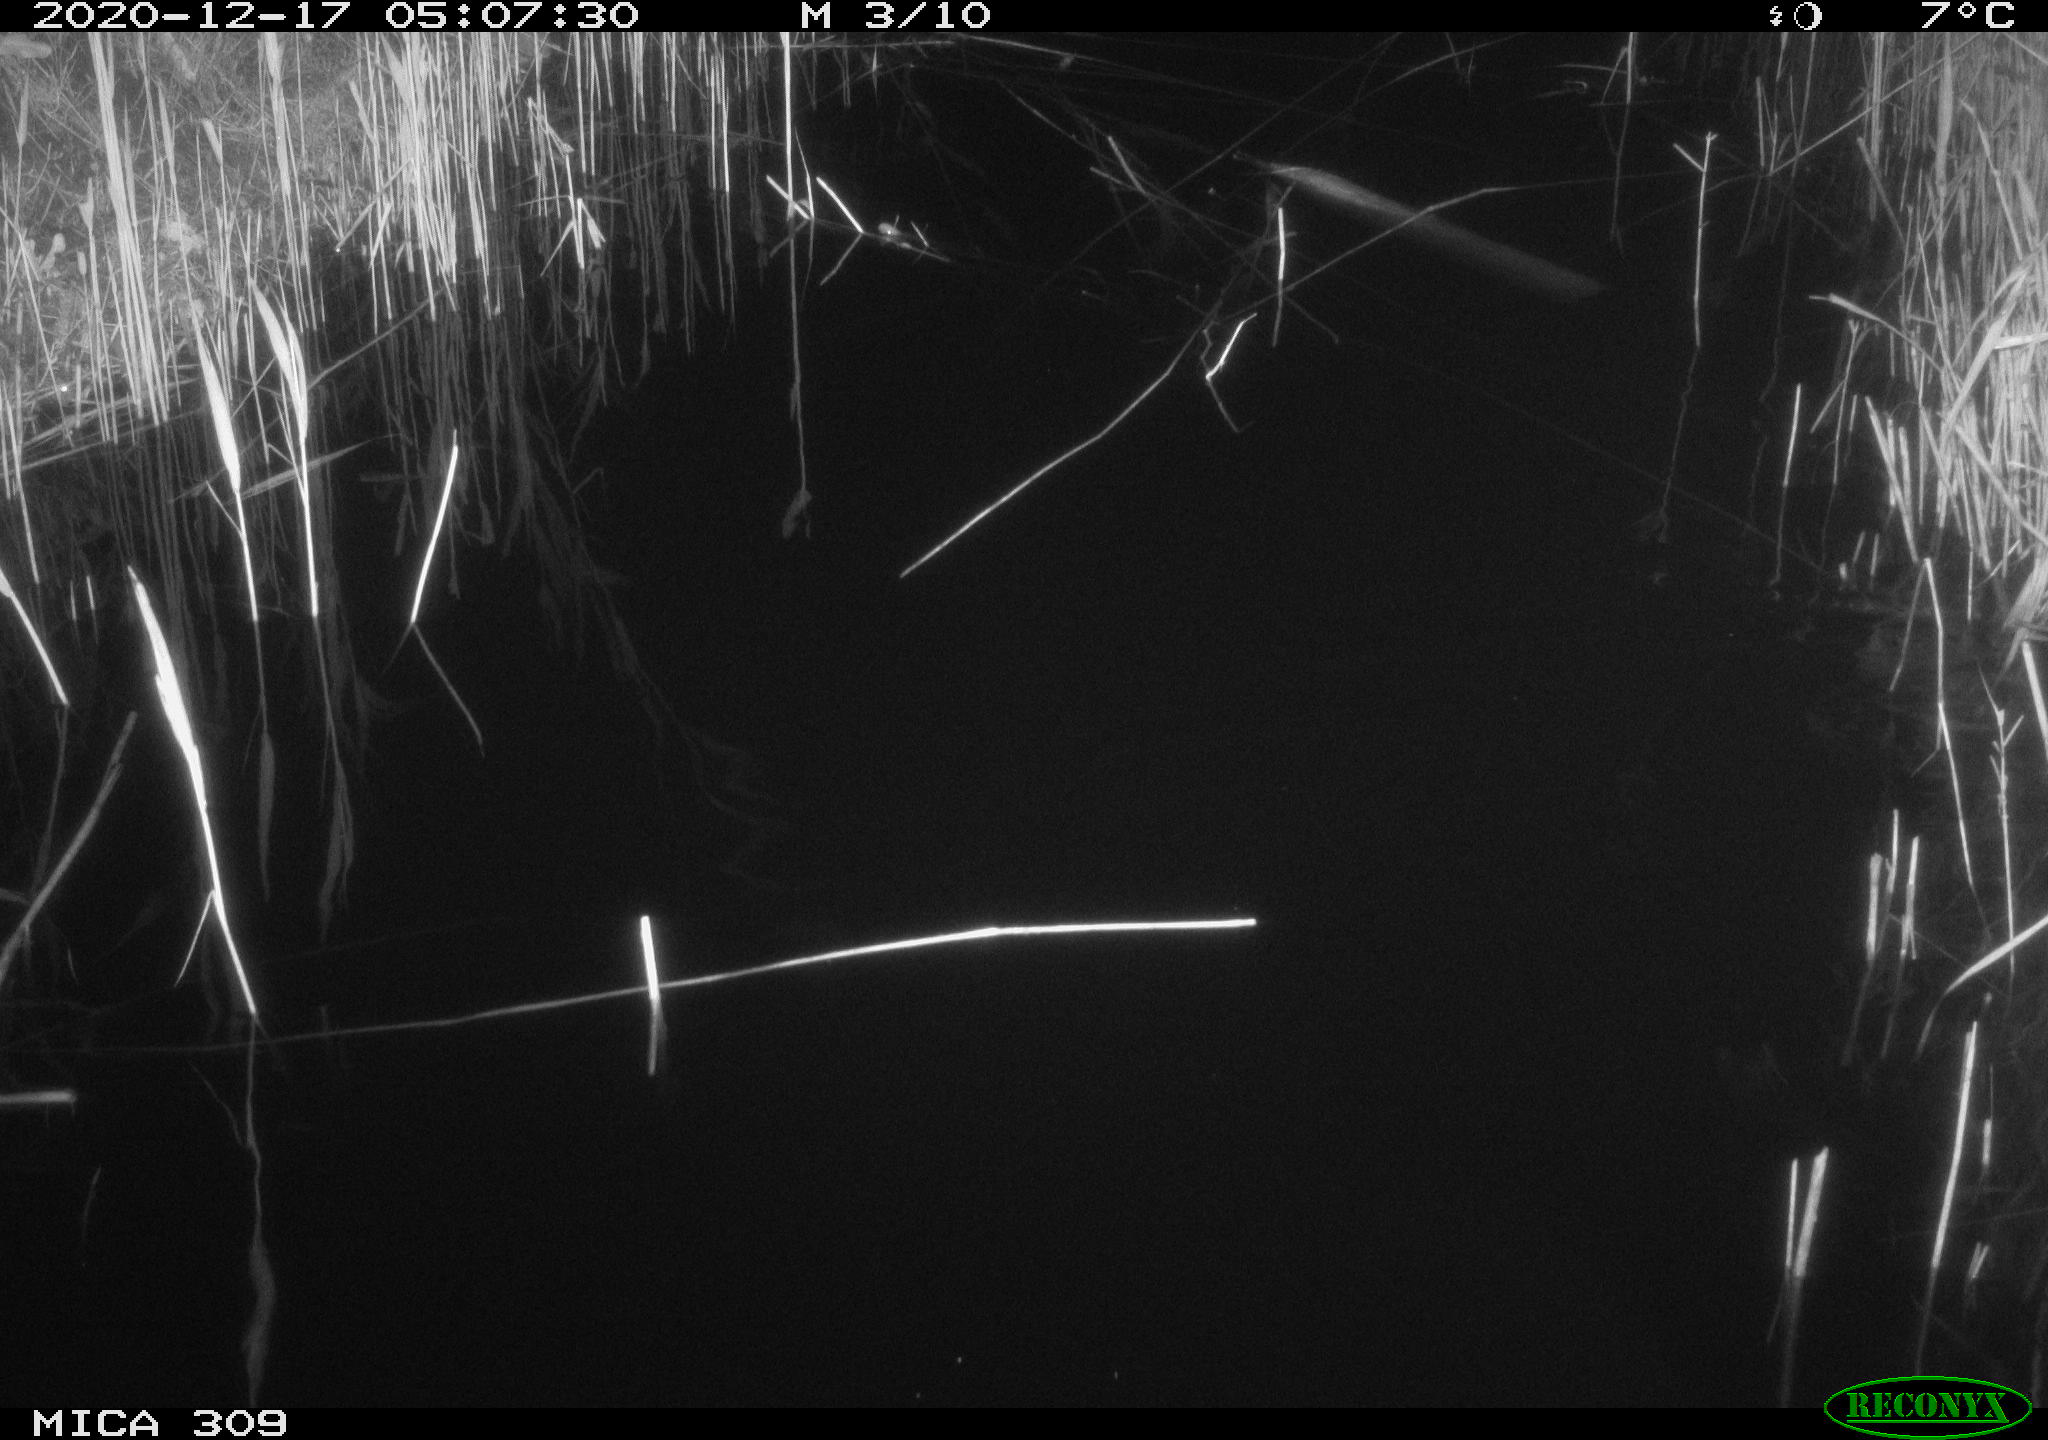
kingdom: Animalia
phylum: Chordata
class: Mammalia
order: Rodentia
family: Muridae
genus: Rattus
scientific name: Rattus norvegicus
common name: Brown rat
